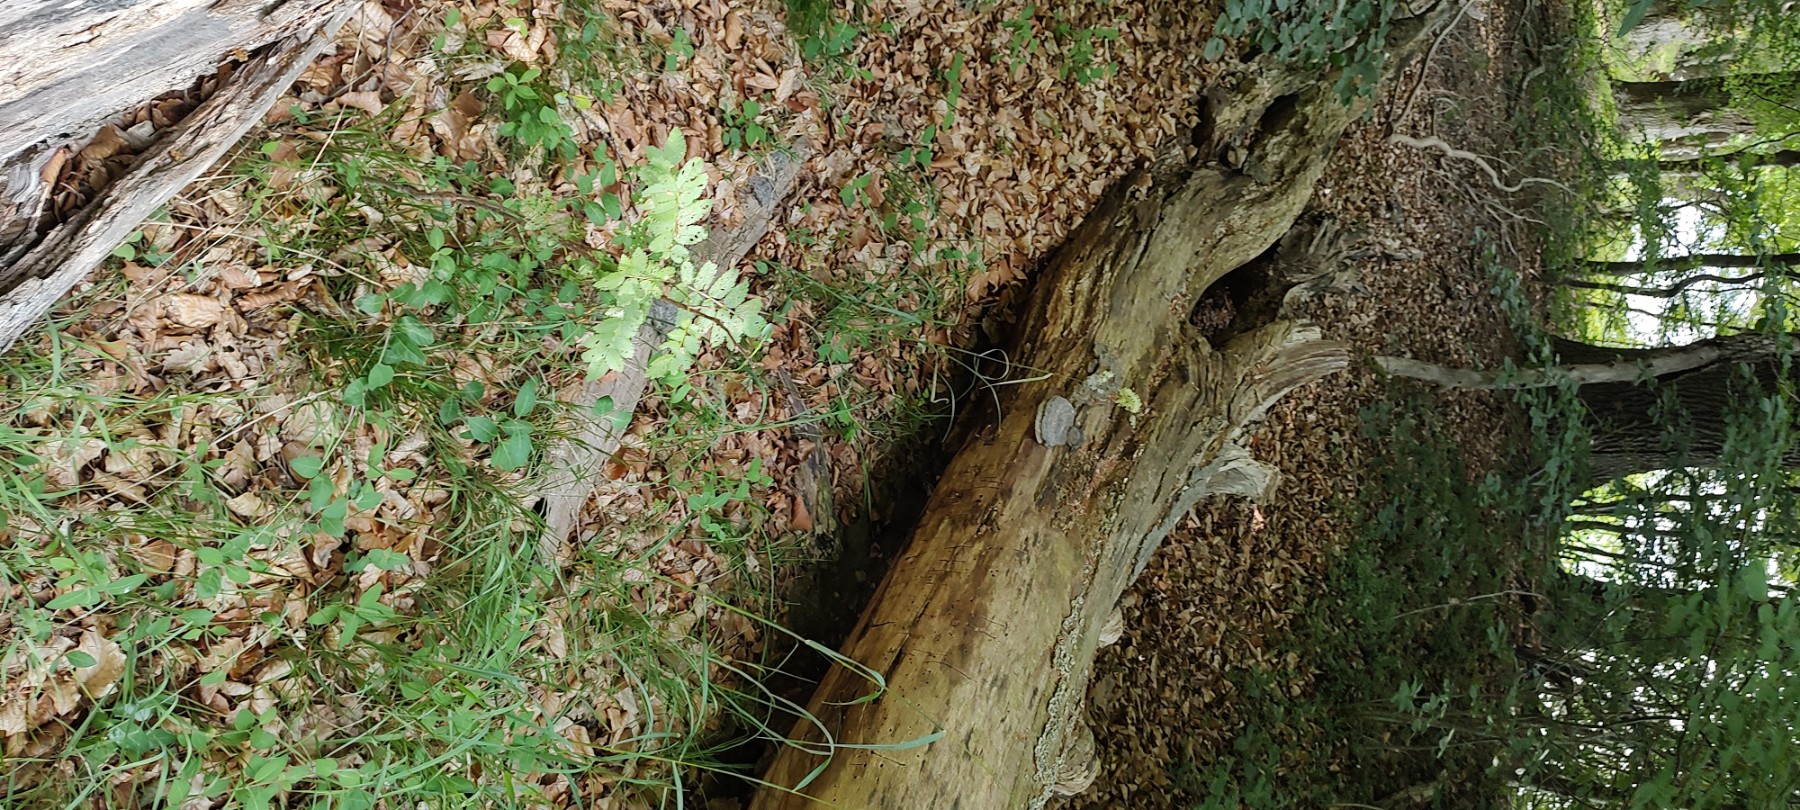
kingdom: Fungi
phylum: Basidiomycota
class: Agaricomycetes
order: Polyporales
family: Polyporaceae
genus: Fomes
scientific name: Fomes fomentarius
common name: tøndersvamp
